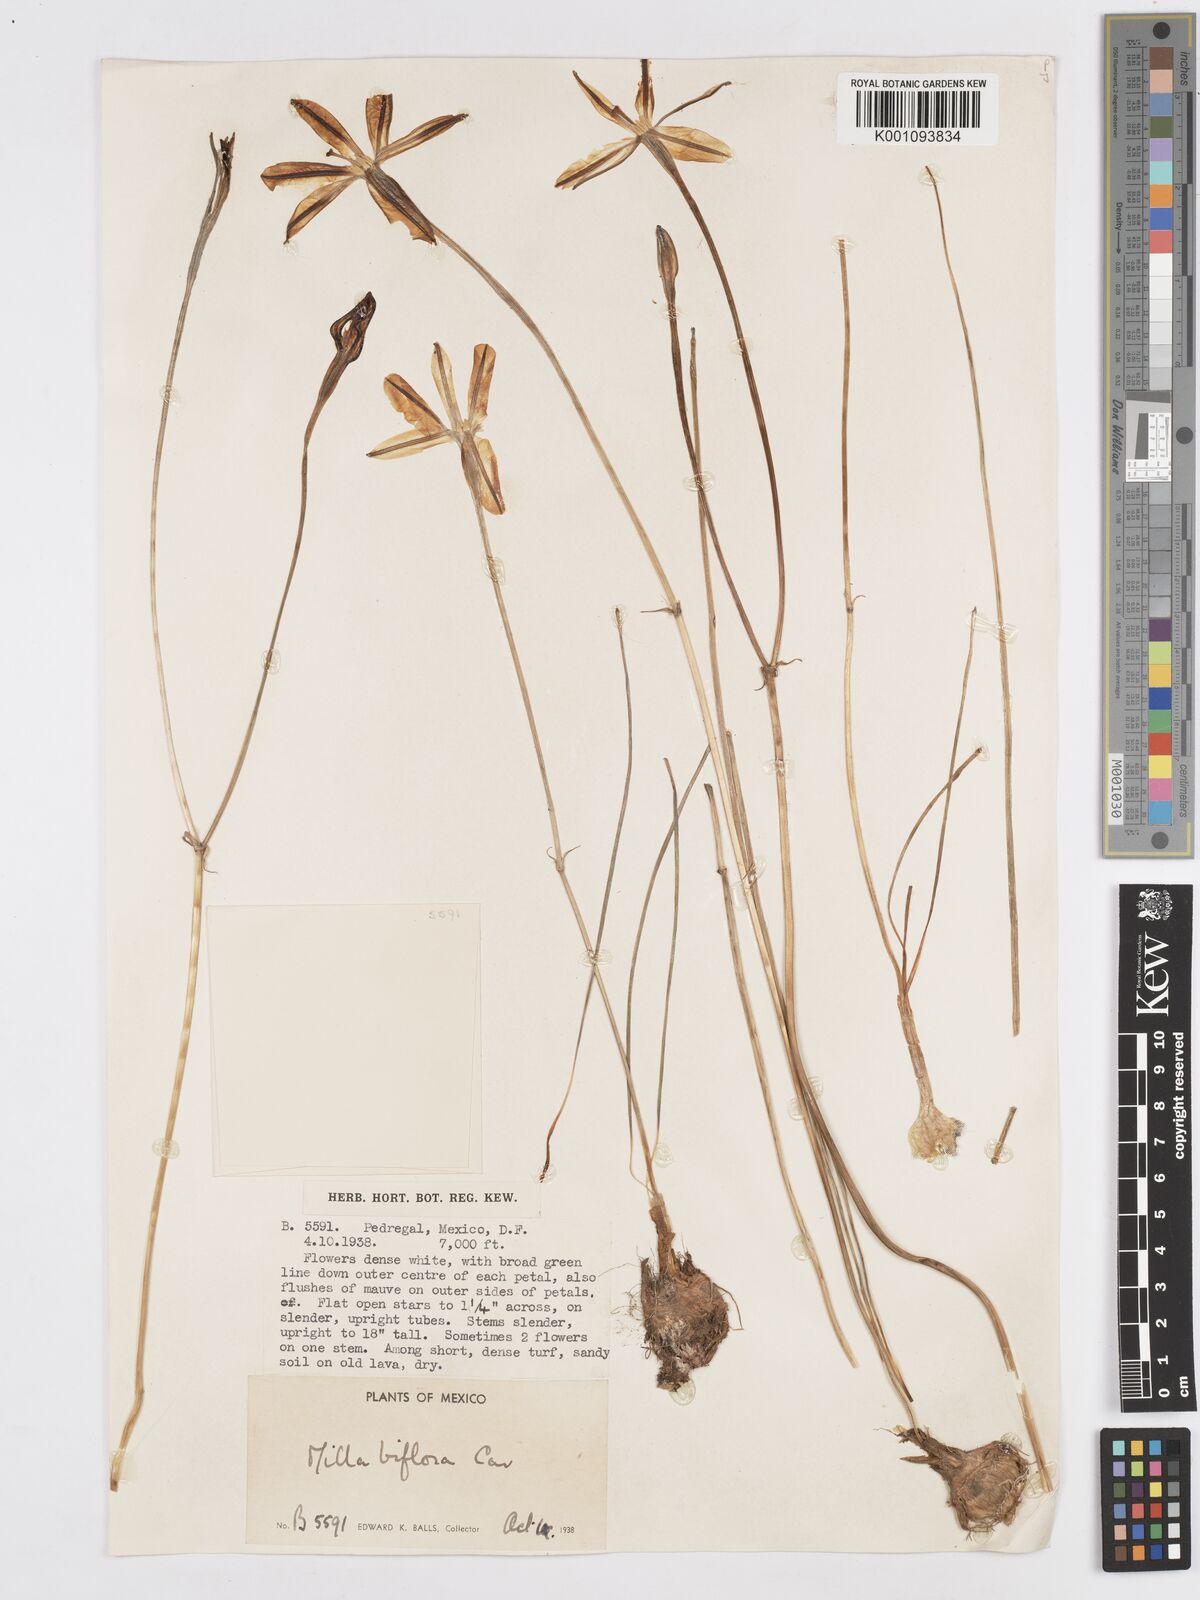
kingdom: Plantae
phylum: Tracheophyta
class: Liliopsida
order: Asparagales
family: Asparagaceae
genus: Milla
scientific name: Milla biflora
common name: Mexican-star
